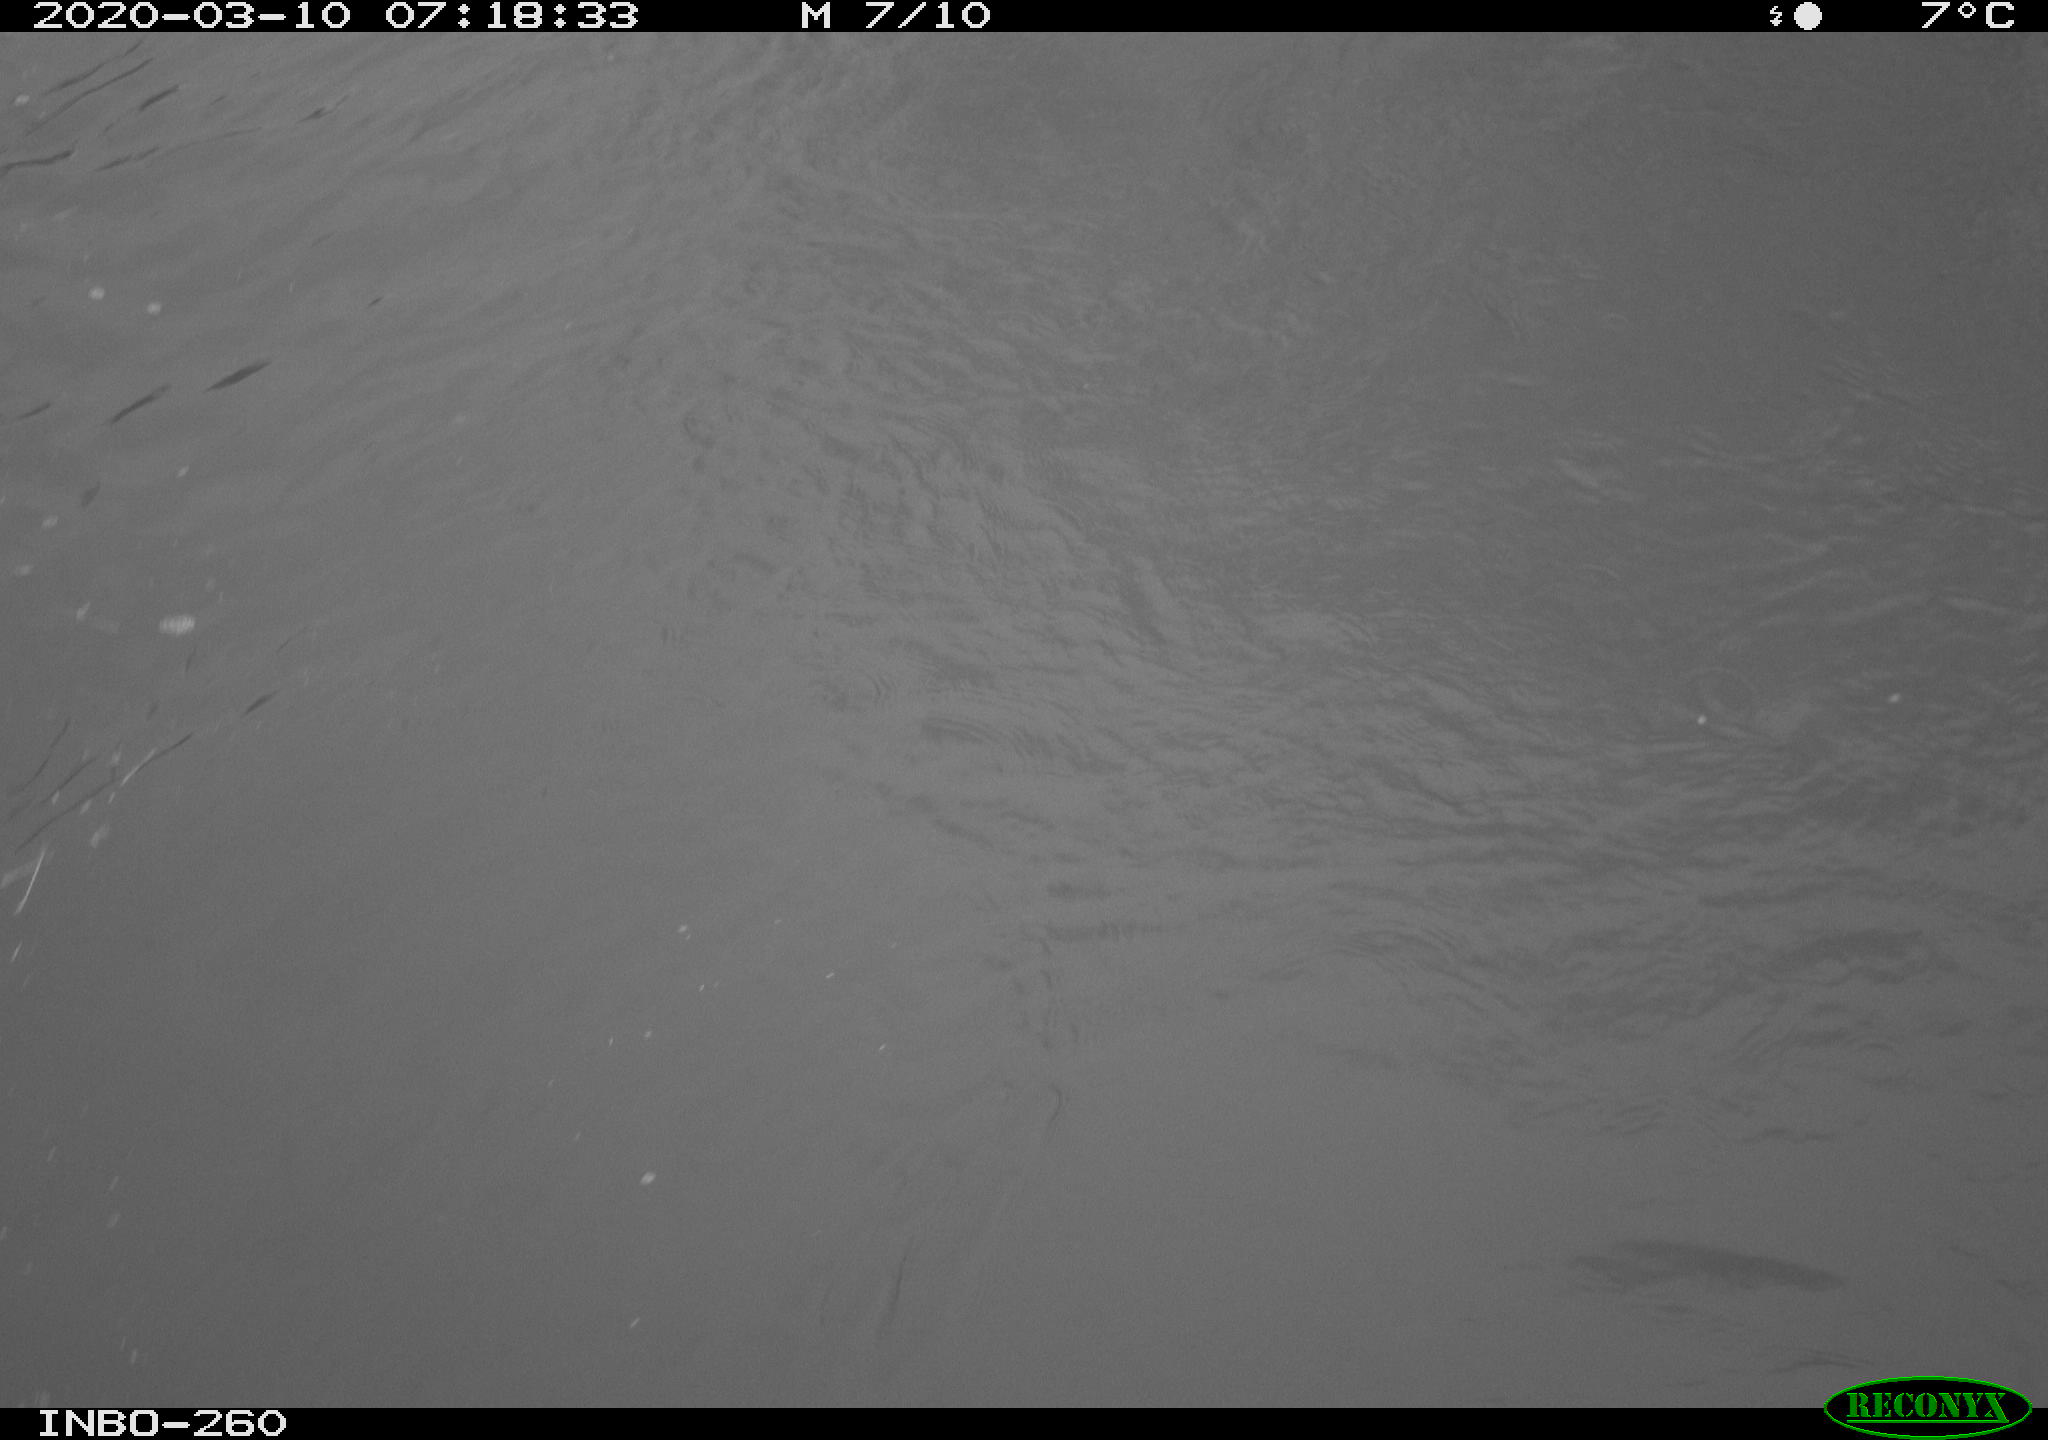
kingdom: Animalia
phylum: Chordata
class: Aves
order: Anseriformes
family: Anatidae
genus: Anas
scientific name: Anas platyrhynchos
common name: Mallard
